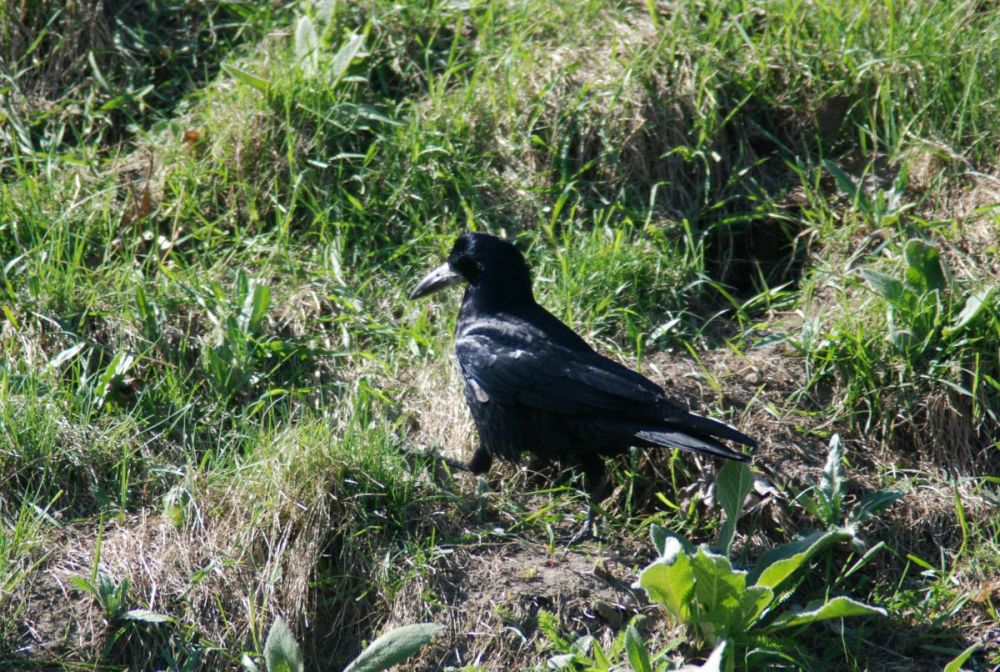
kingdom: Animalia
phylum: Chordata
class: Aves
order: Passeriformes
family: Corvidae
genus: Corvus
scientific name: Corvus frugilegus
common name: Rook
